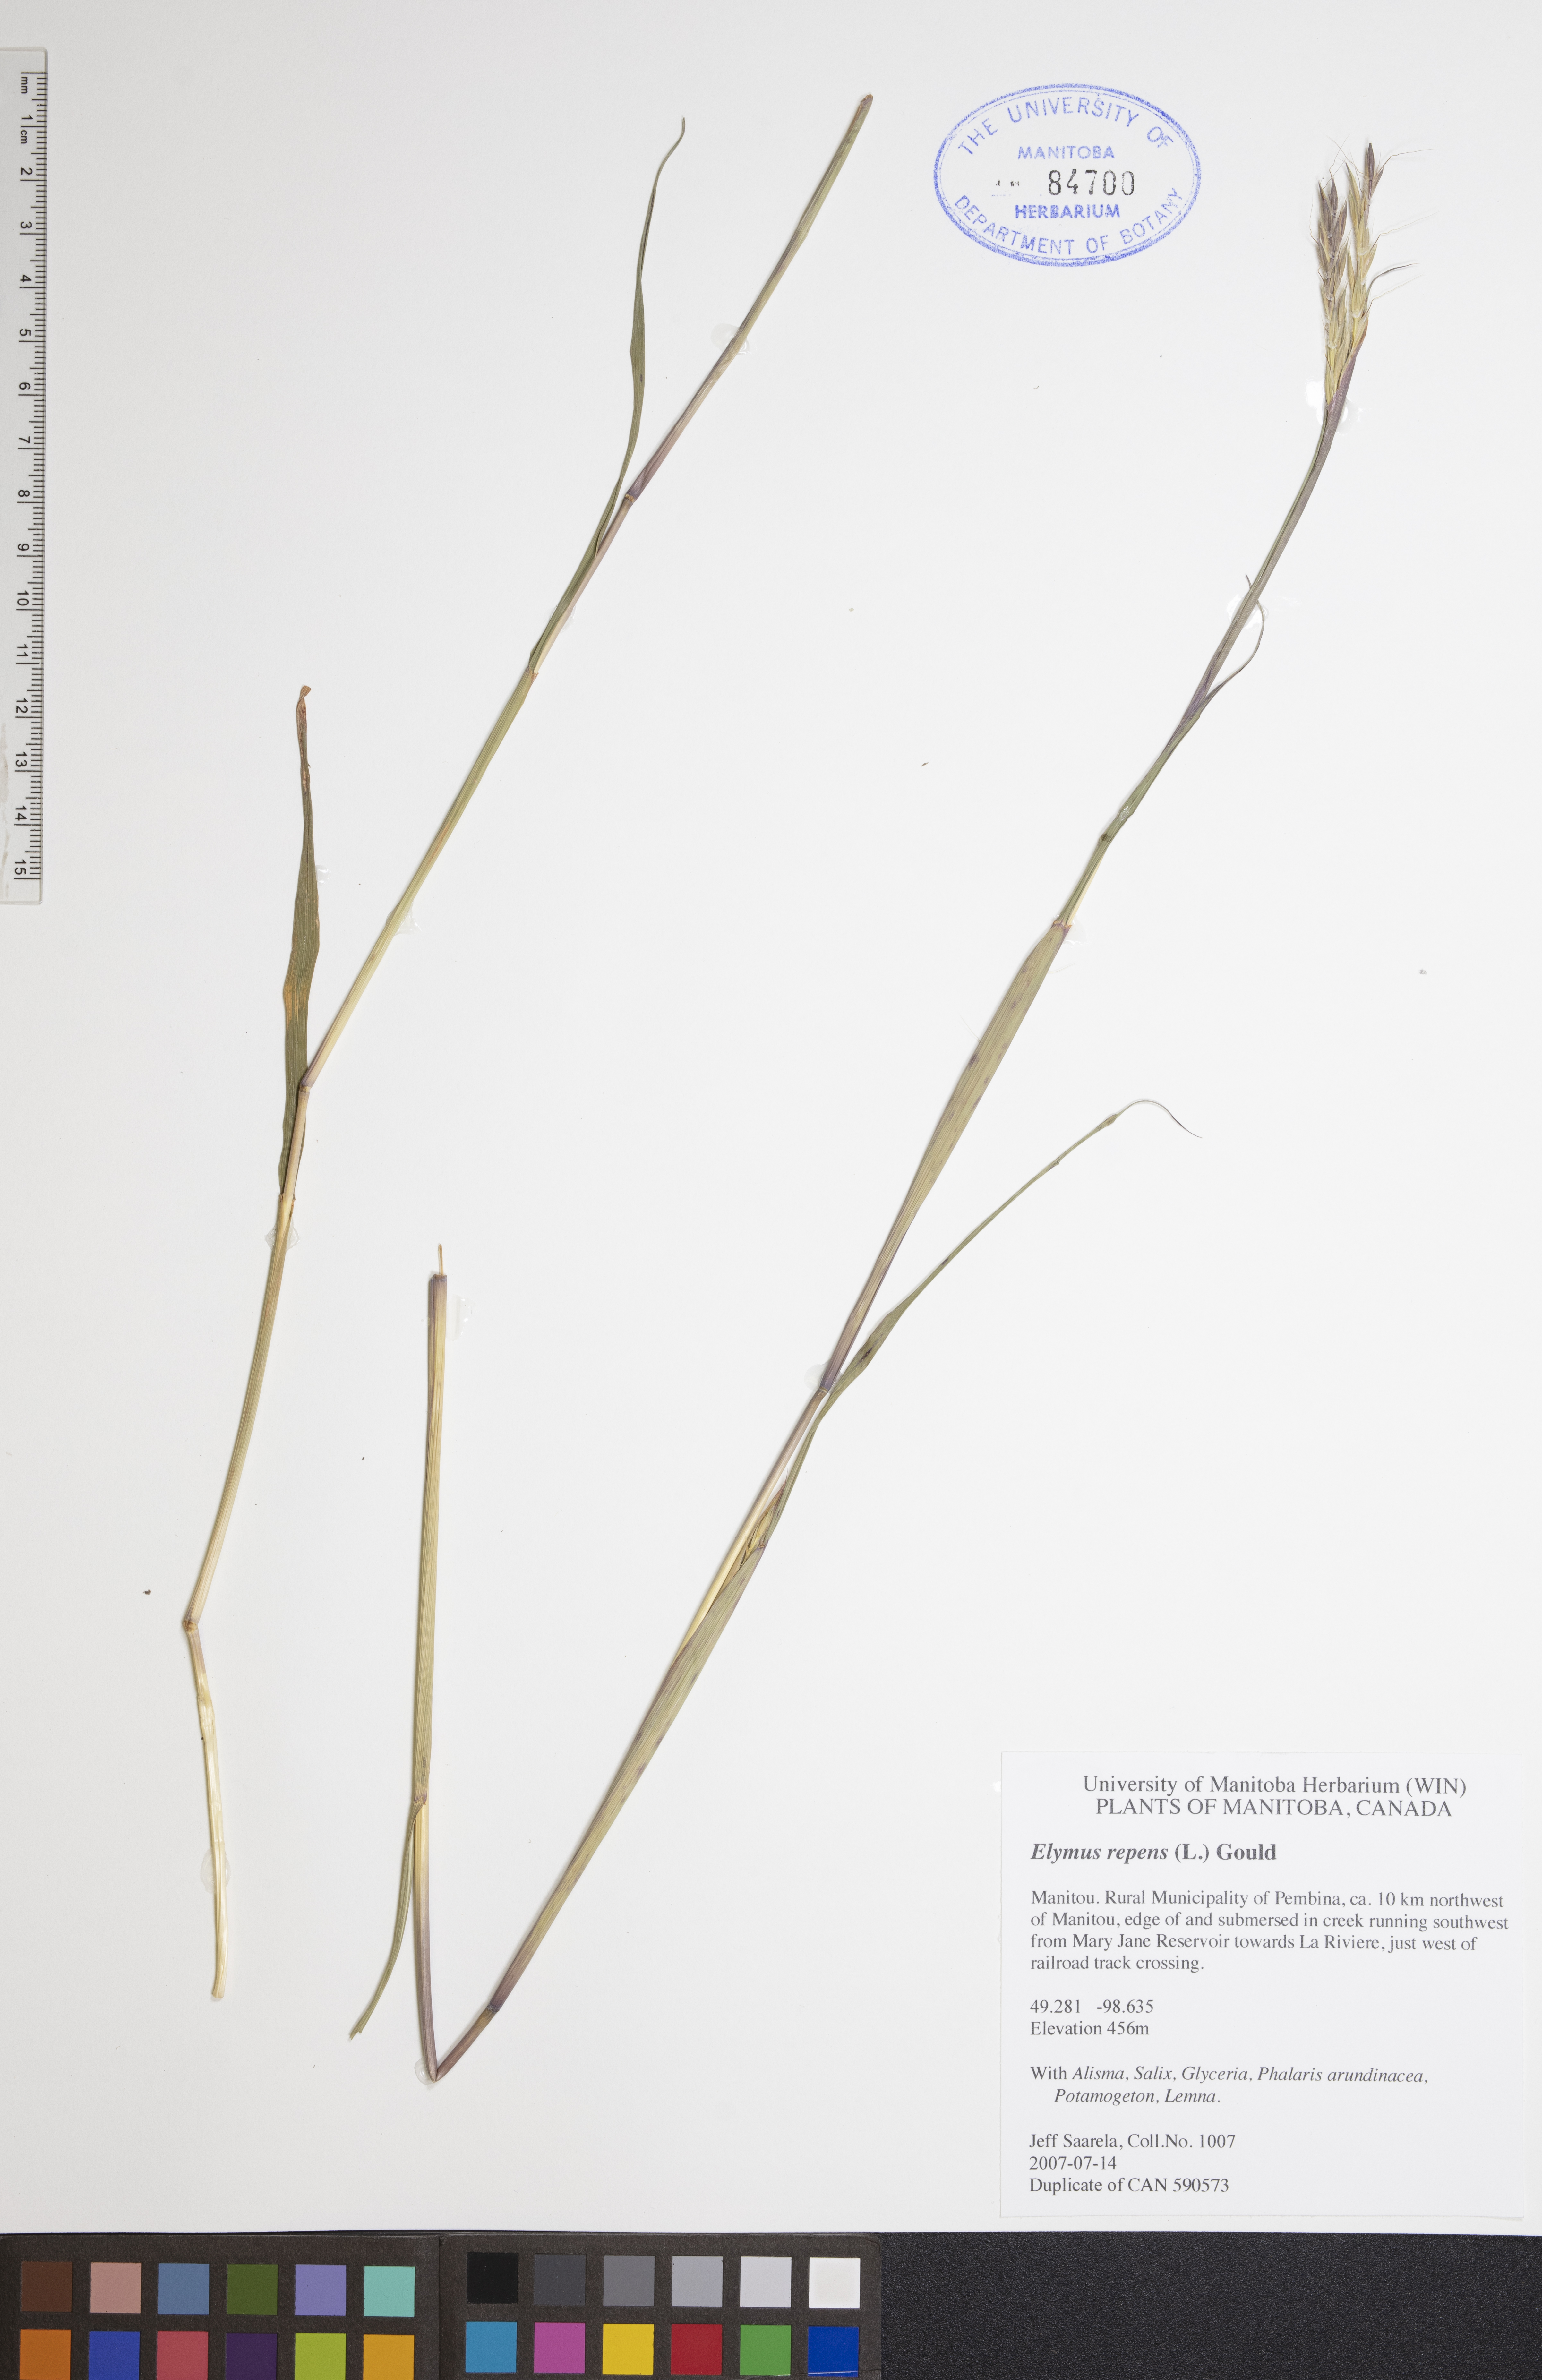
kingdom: Plantae
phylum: Tracheophyta
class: Liliopsida
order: Poales
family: Poaceae
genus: Elymus
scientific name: Elymus repens
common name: Quackgrass
